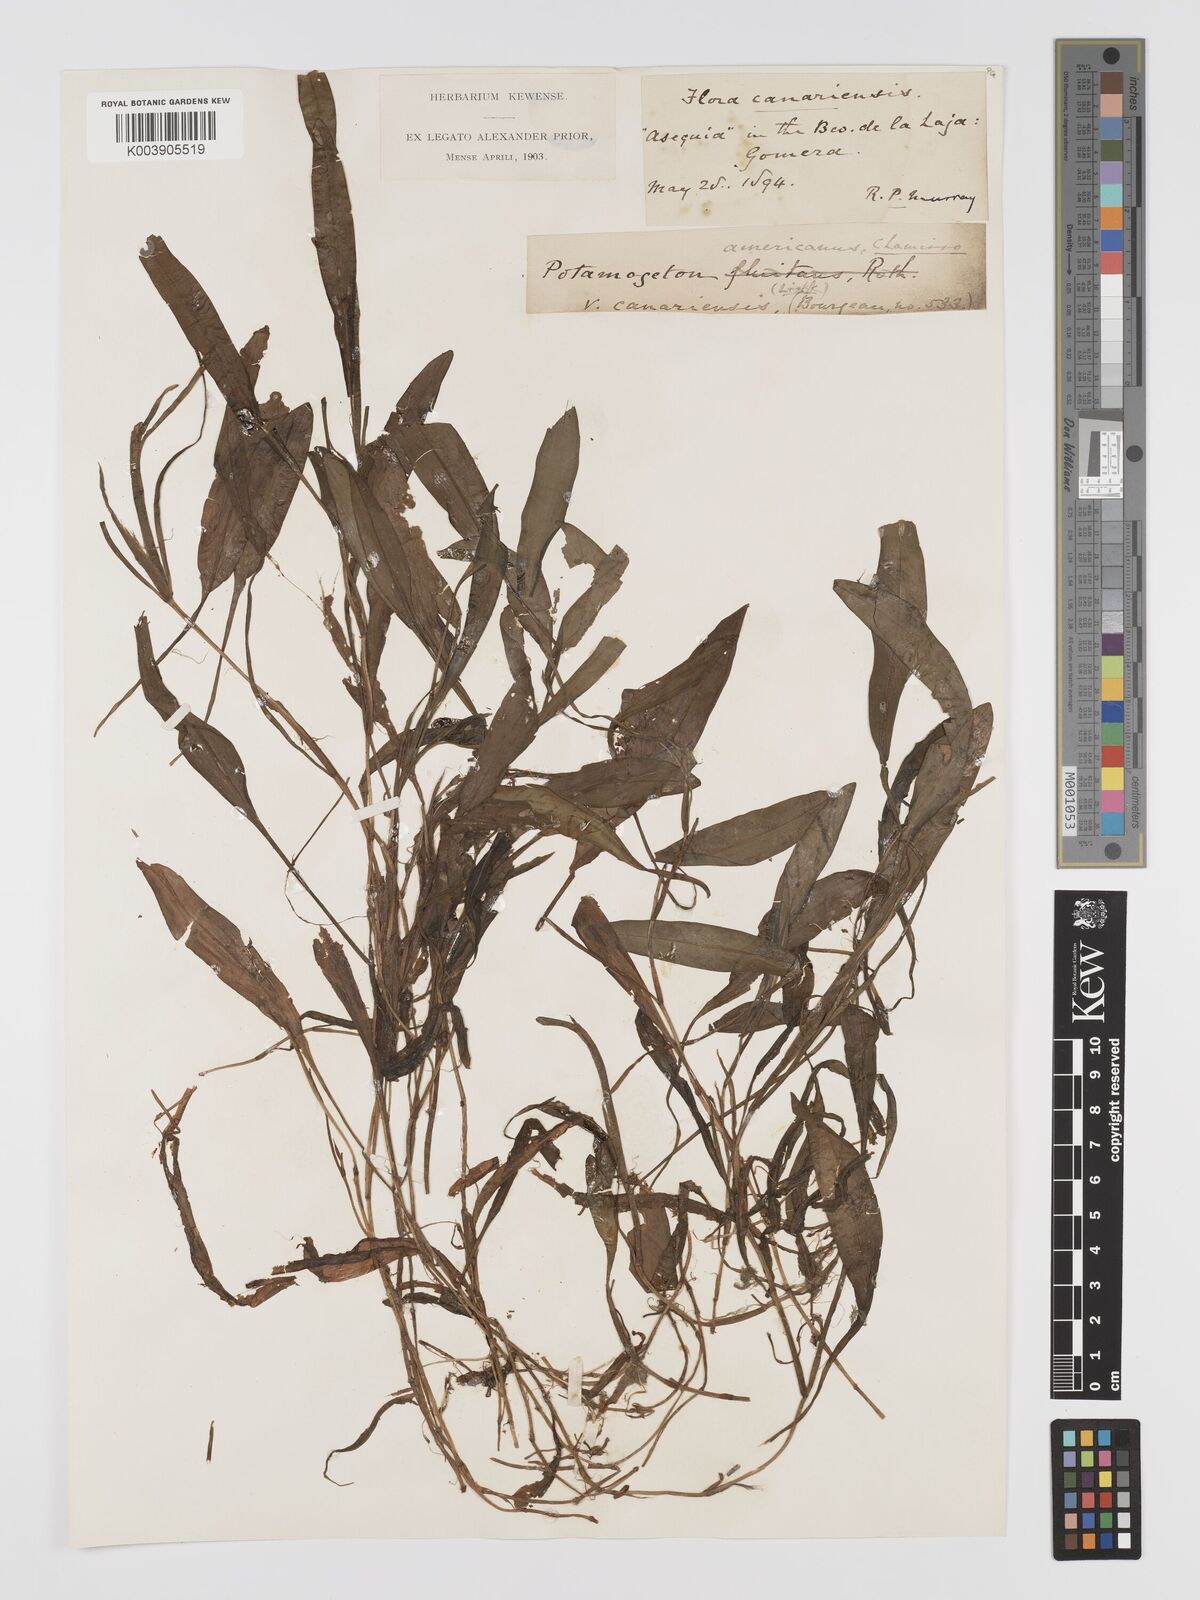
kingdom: Plantae
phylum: Tracheophyta
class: Liliopsida
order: Alismatales
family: Potamogetonaceae
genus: Potamogeton
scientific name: Potamogeton nodosus
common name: Loddon pondweed
